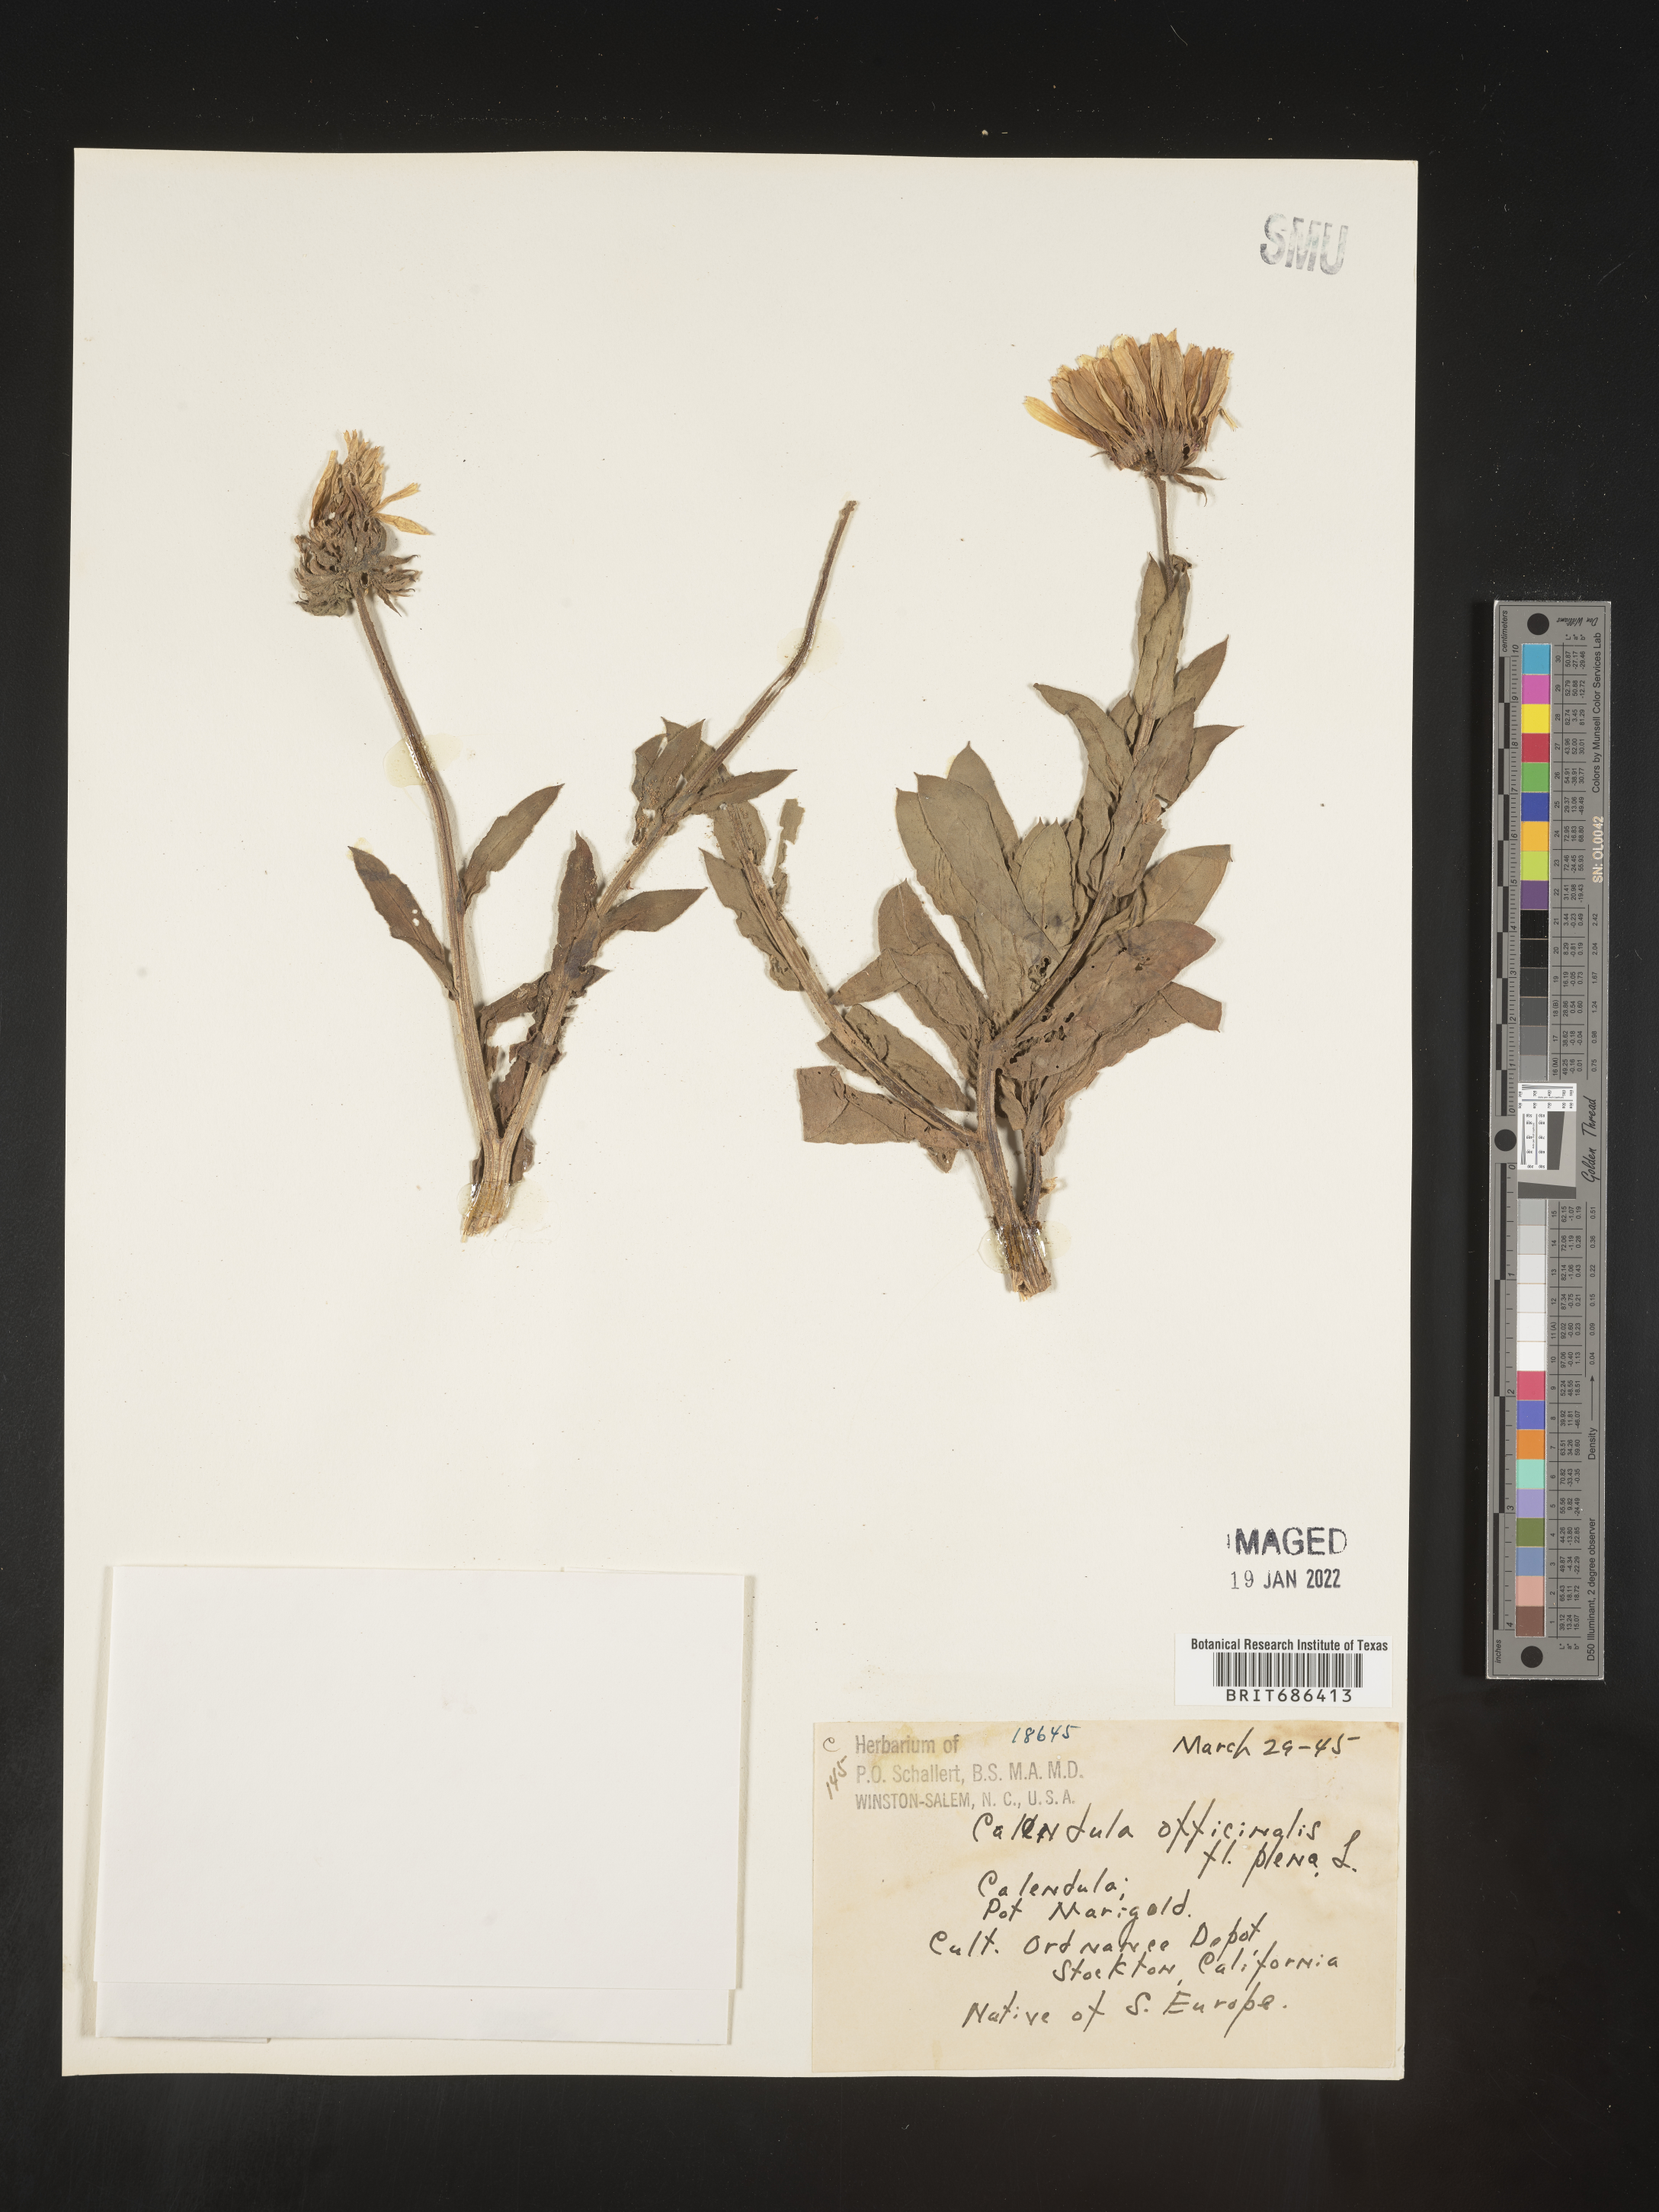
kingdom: Plantae
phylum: Tracheophyta
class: Magnoliopsida
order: Asterales
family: Asteraceae
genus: Calendula
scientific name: Calendula
